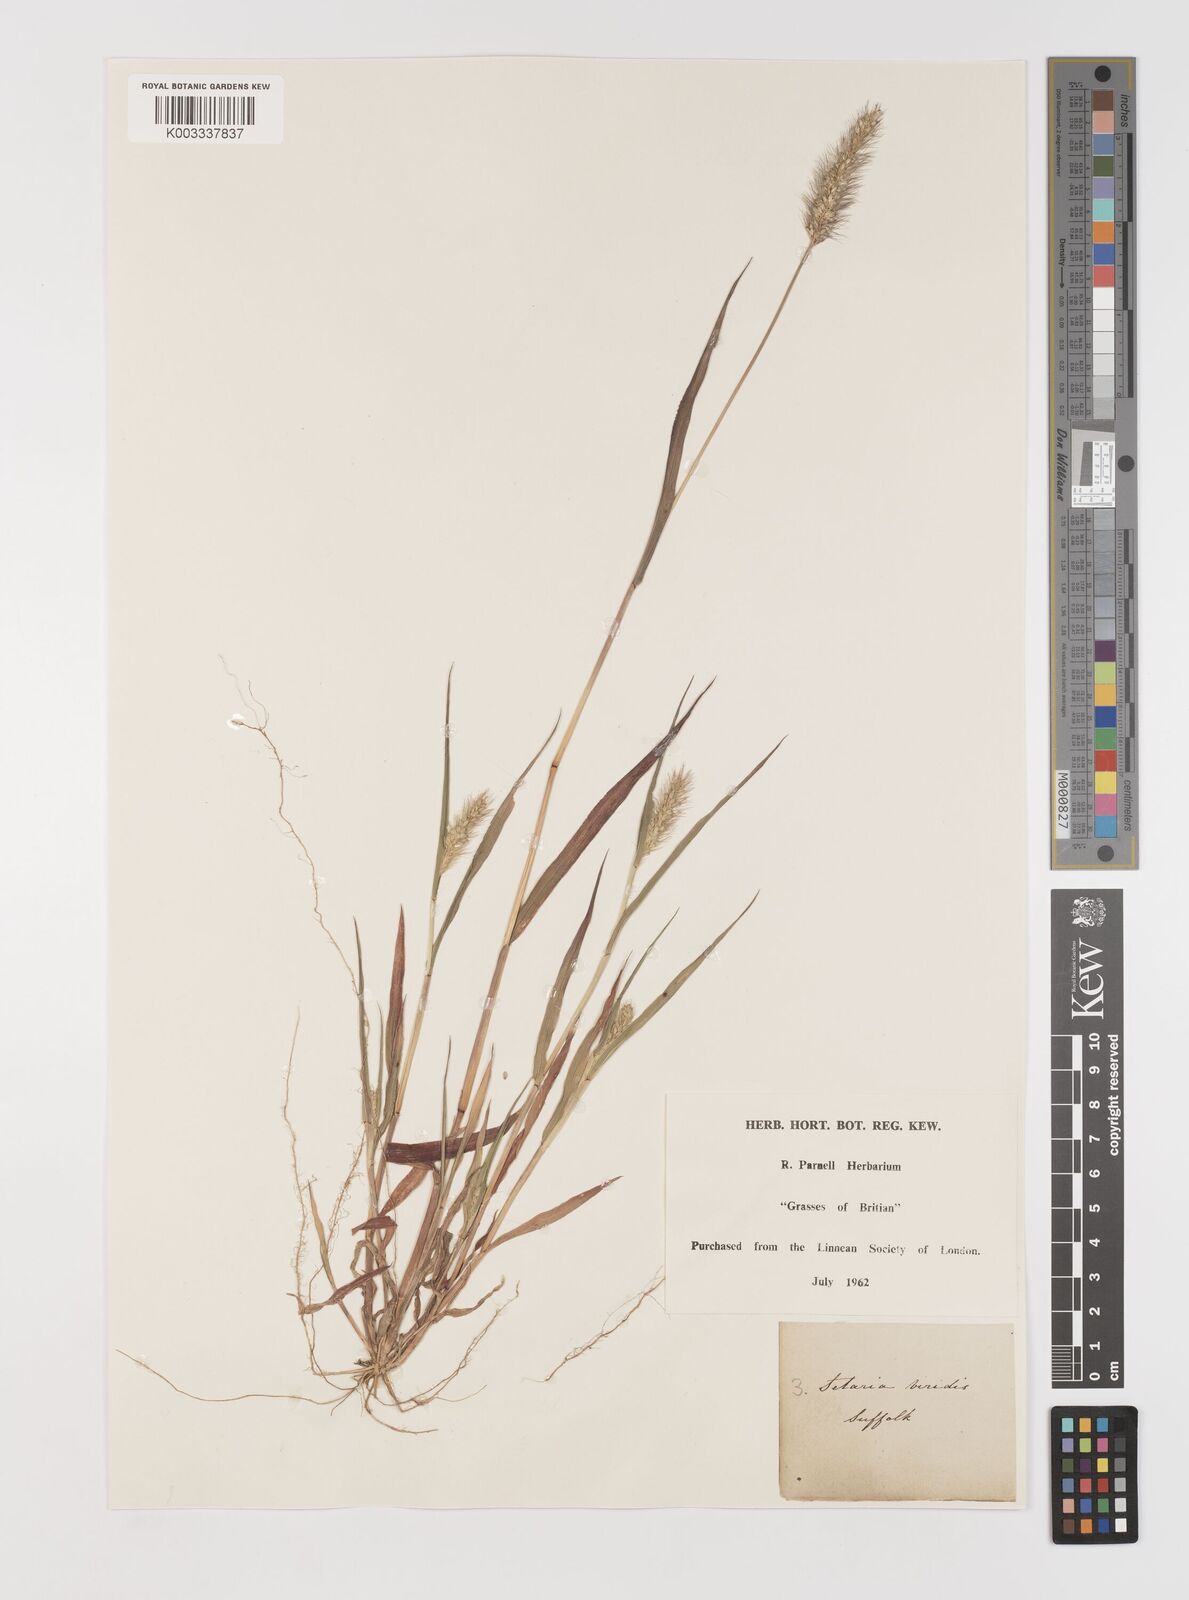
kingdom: Plantae
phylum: Tracheophyta
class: Liliopsida
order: Poales
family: Poaceae
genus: Setaria
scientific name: Setaria viridis
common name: Green bristlegrass
